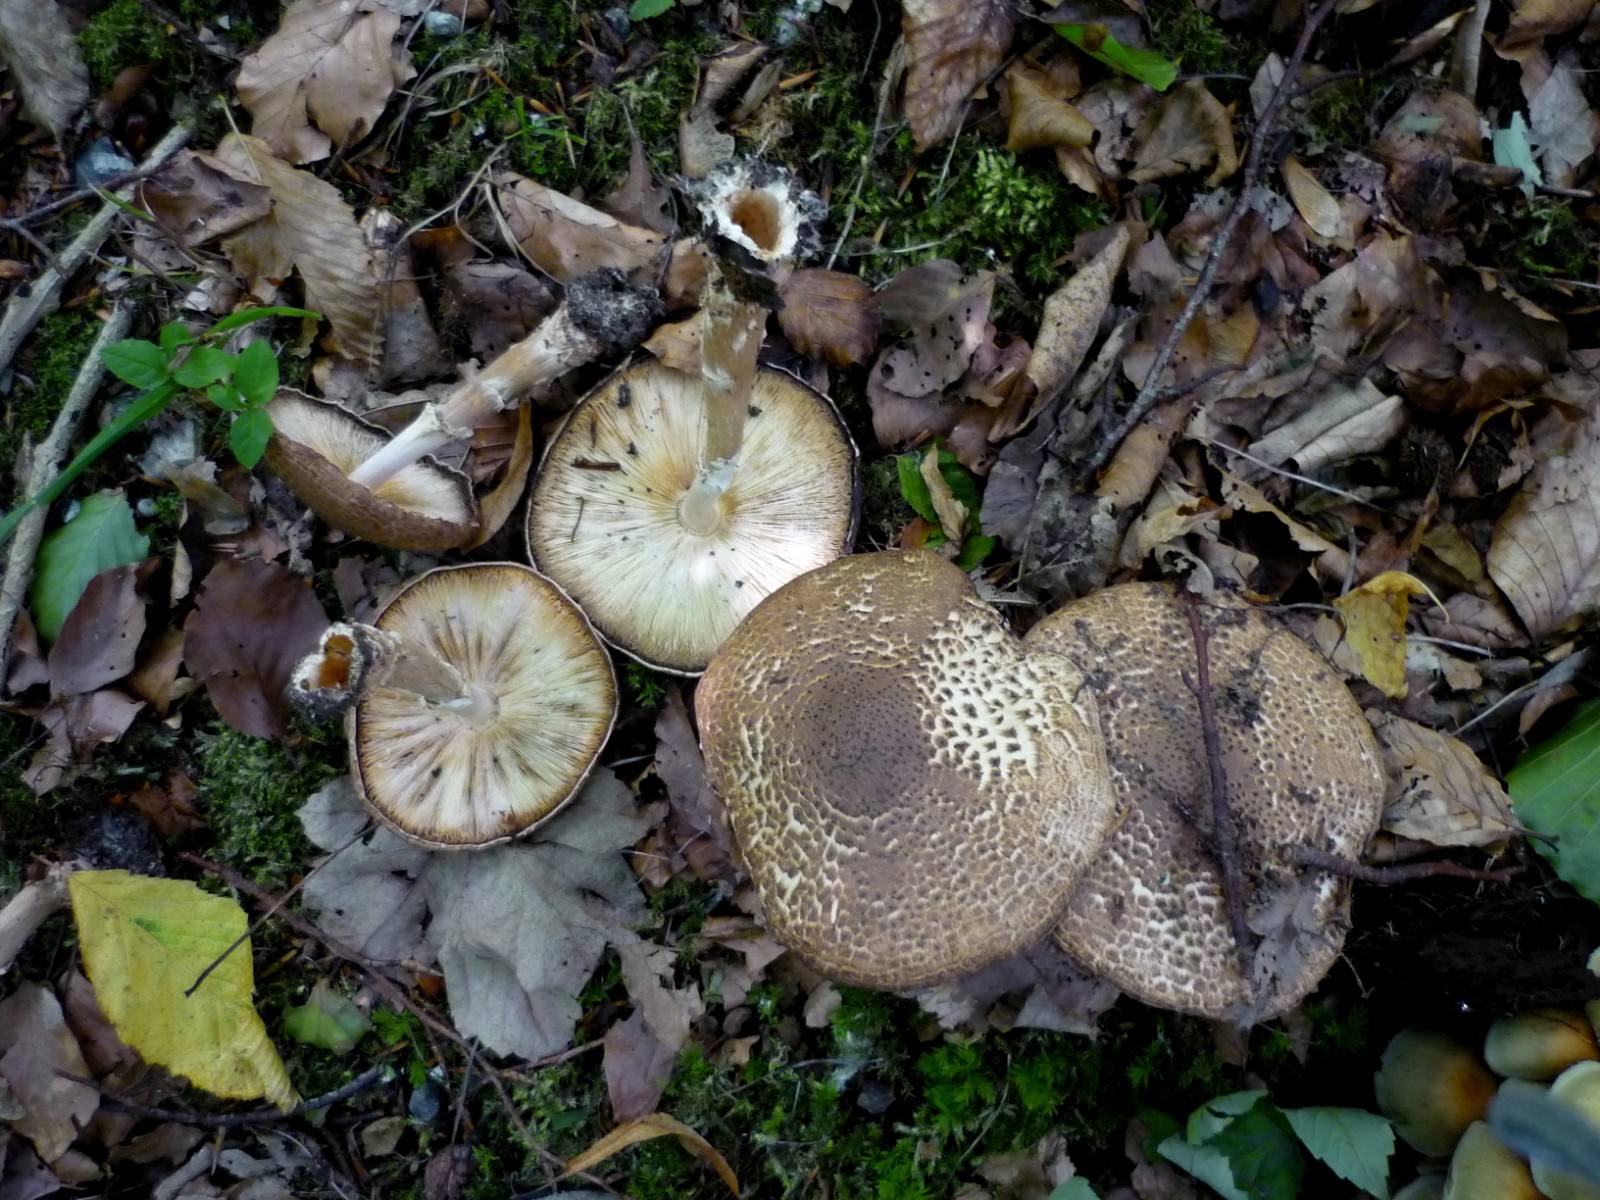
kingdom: Fungi
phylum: Basidiomycota
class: Agaricomycetes
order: Agaricales
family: Agaricaceae
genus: Echinoderma
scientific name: Echinoderma asperum
